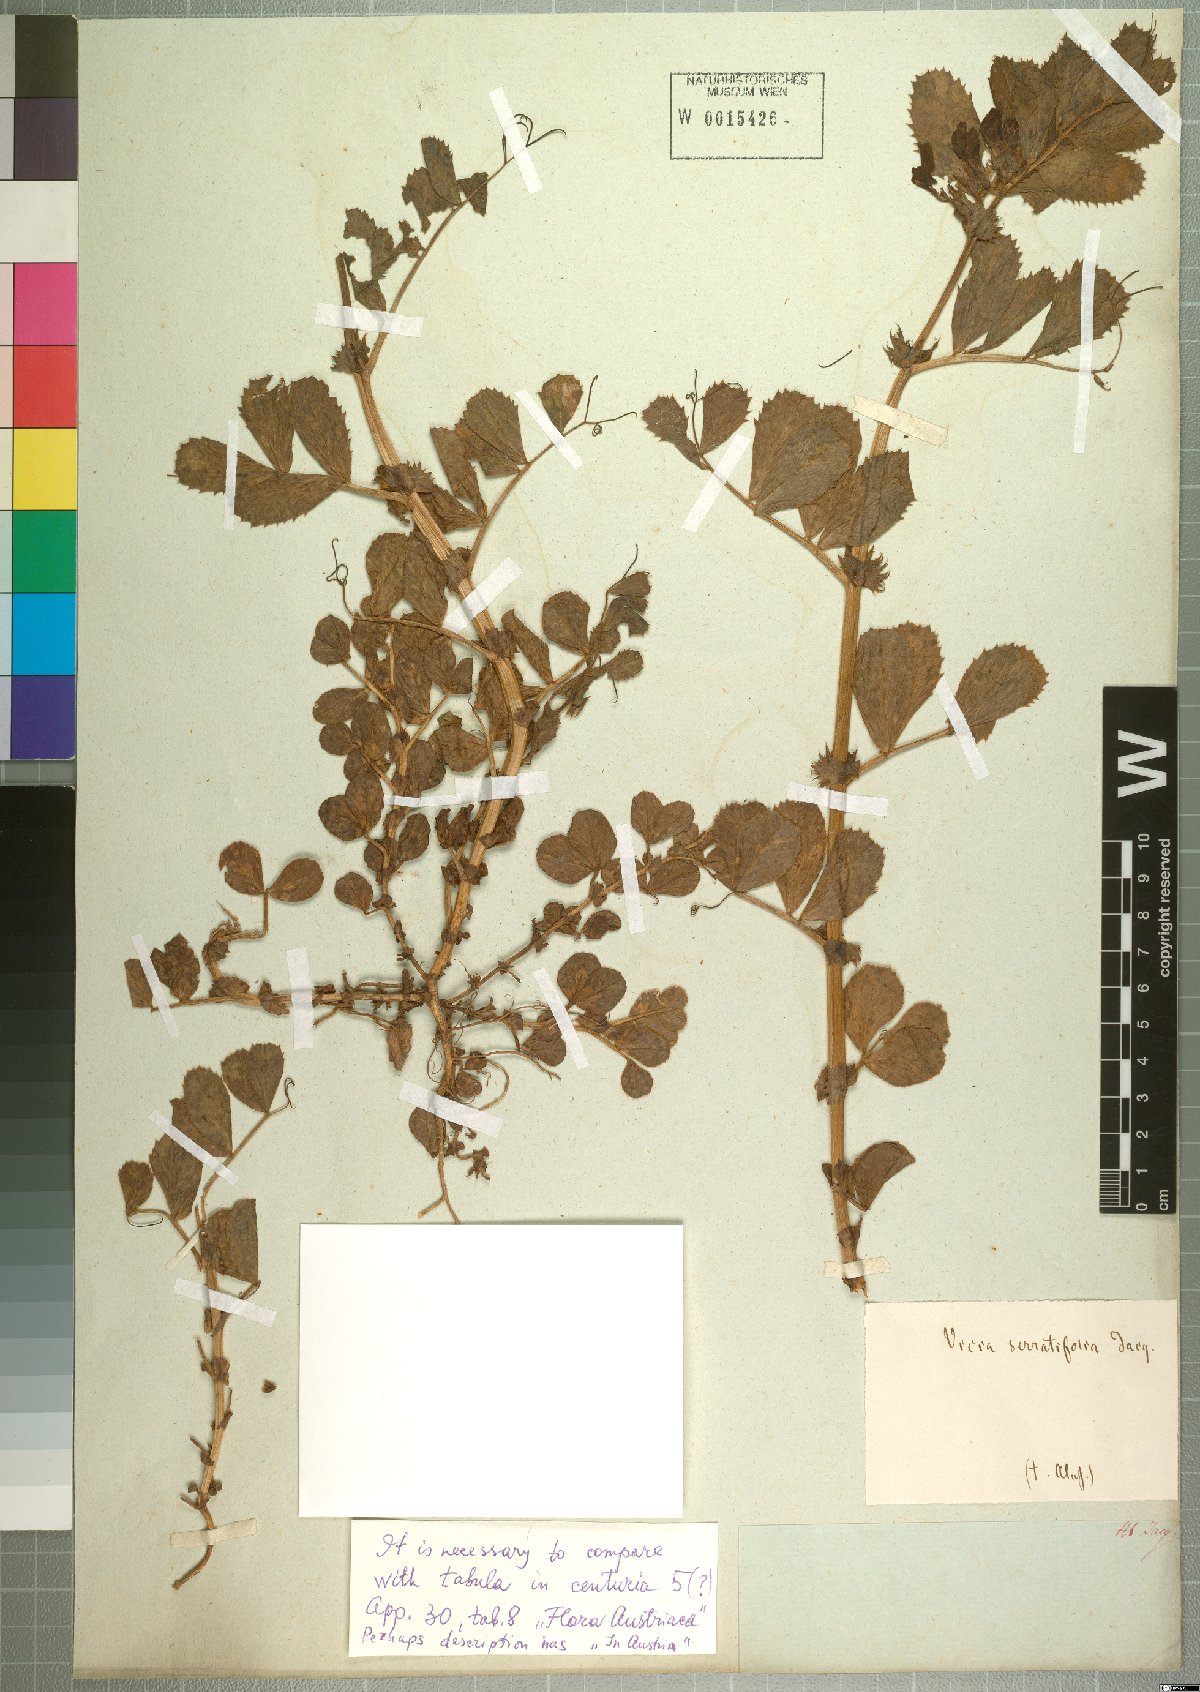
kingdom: Plantae
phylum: Tracheophyta
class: Magnoliopsida
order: Fabales
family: Fabaceae
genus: Vicia
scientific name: Vicia serratifolia
